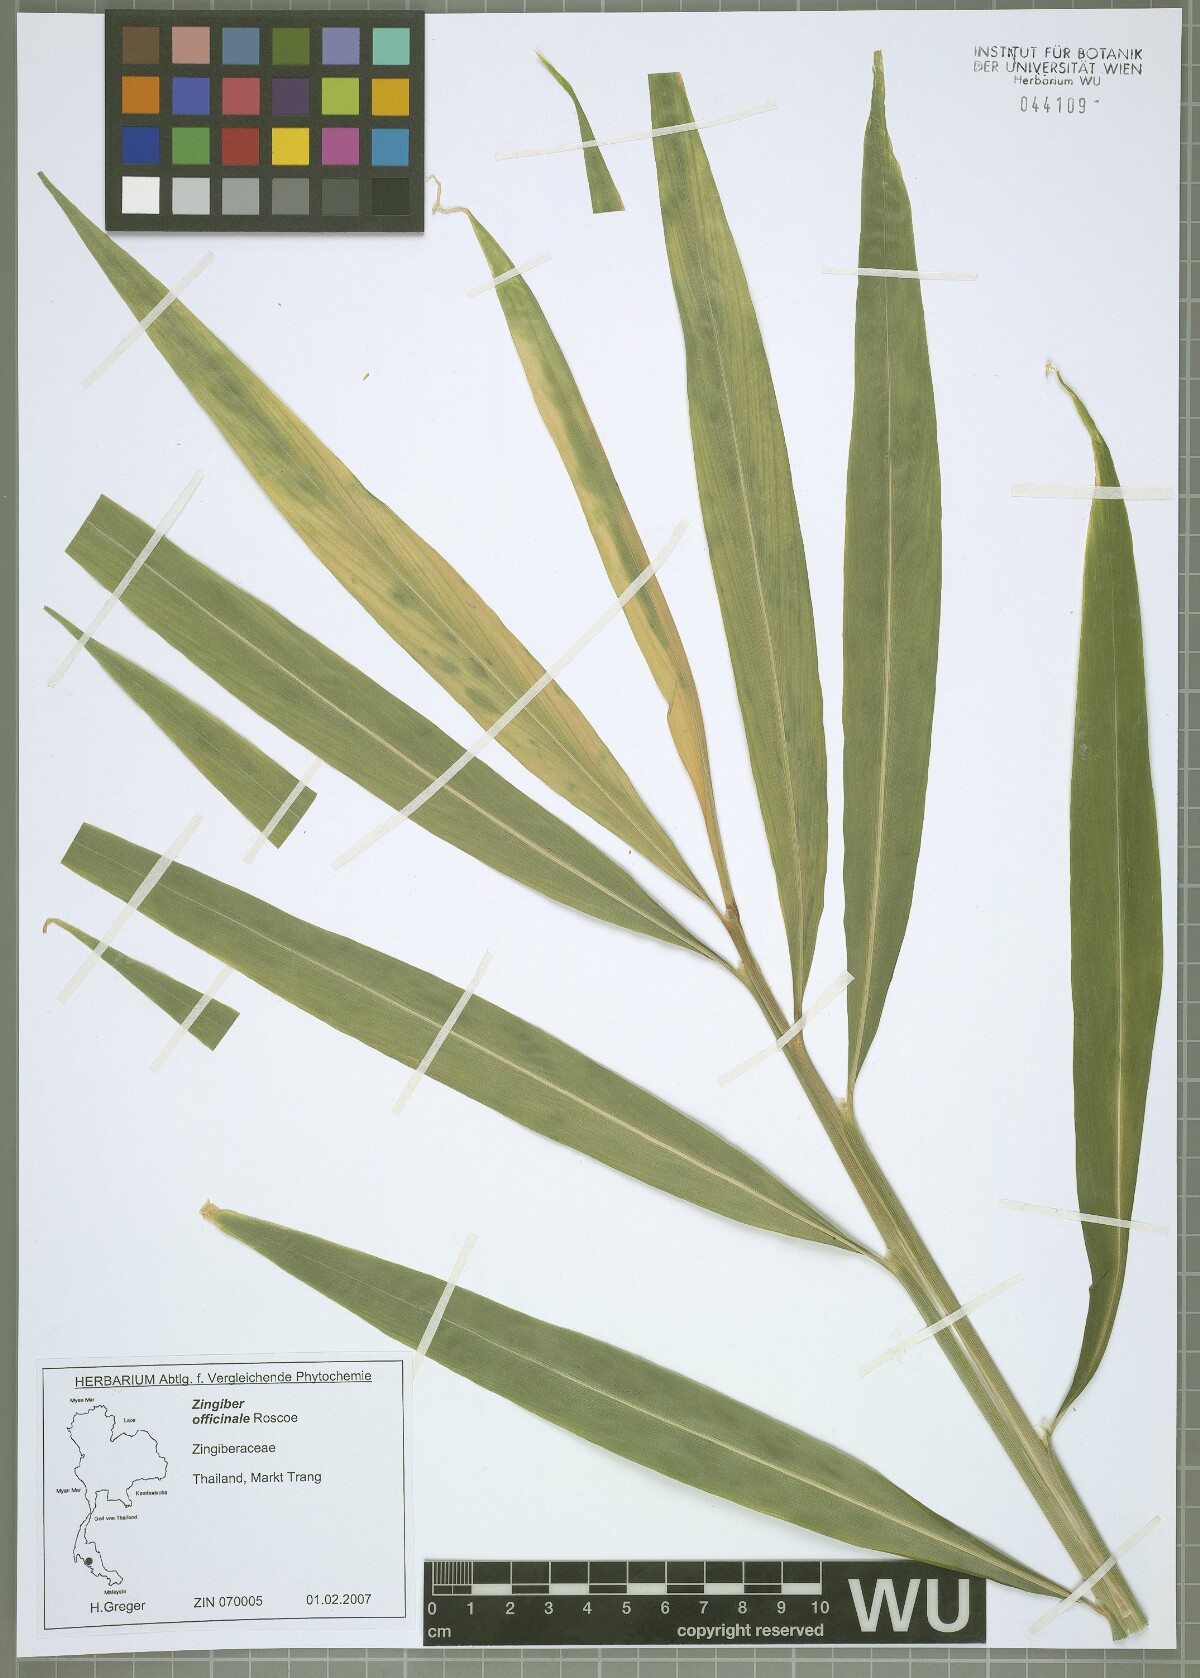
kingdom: Plantae
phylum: Tracheophyta
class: Liliopsida
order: Zingiberales
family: Zingiberaceae
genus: Zingiber
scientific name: Zingiber officinale
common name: Ginger
